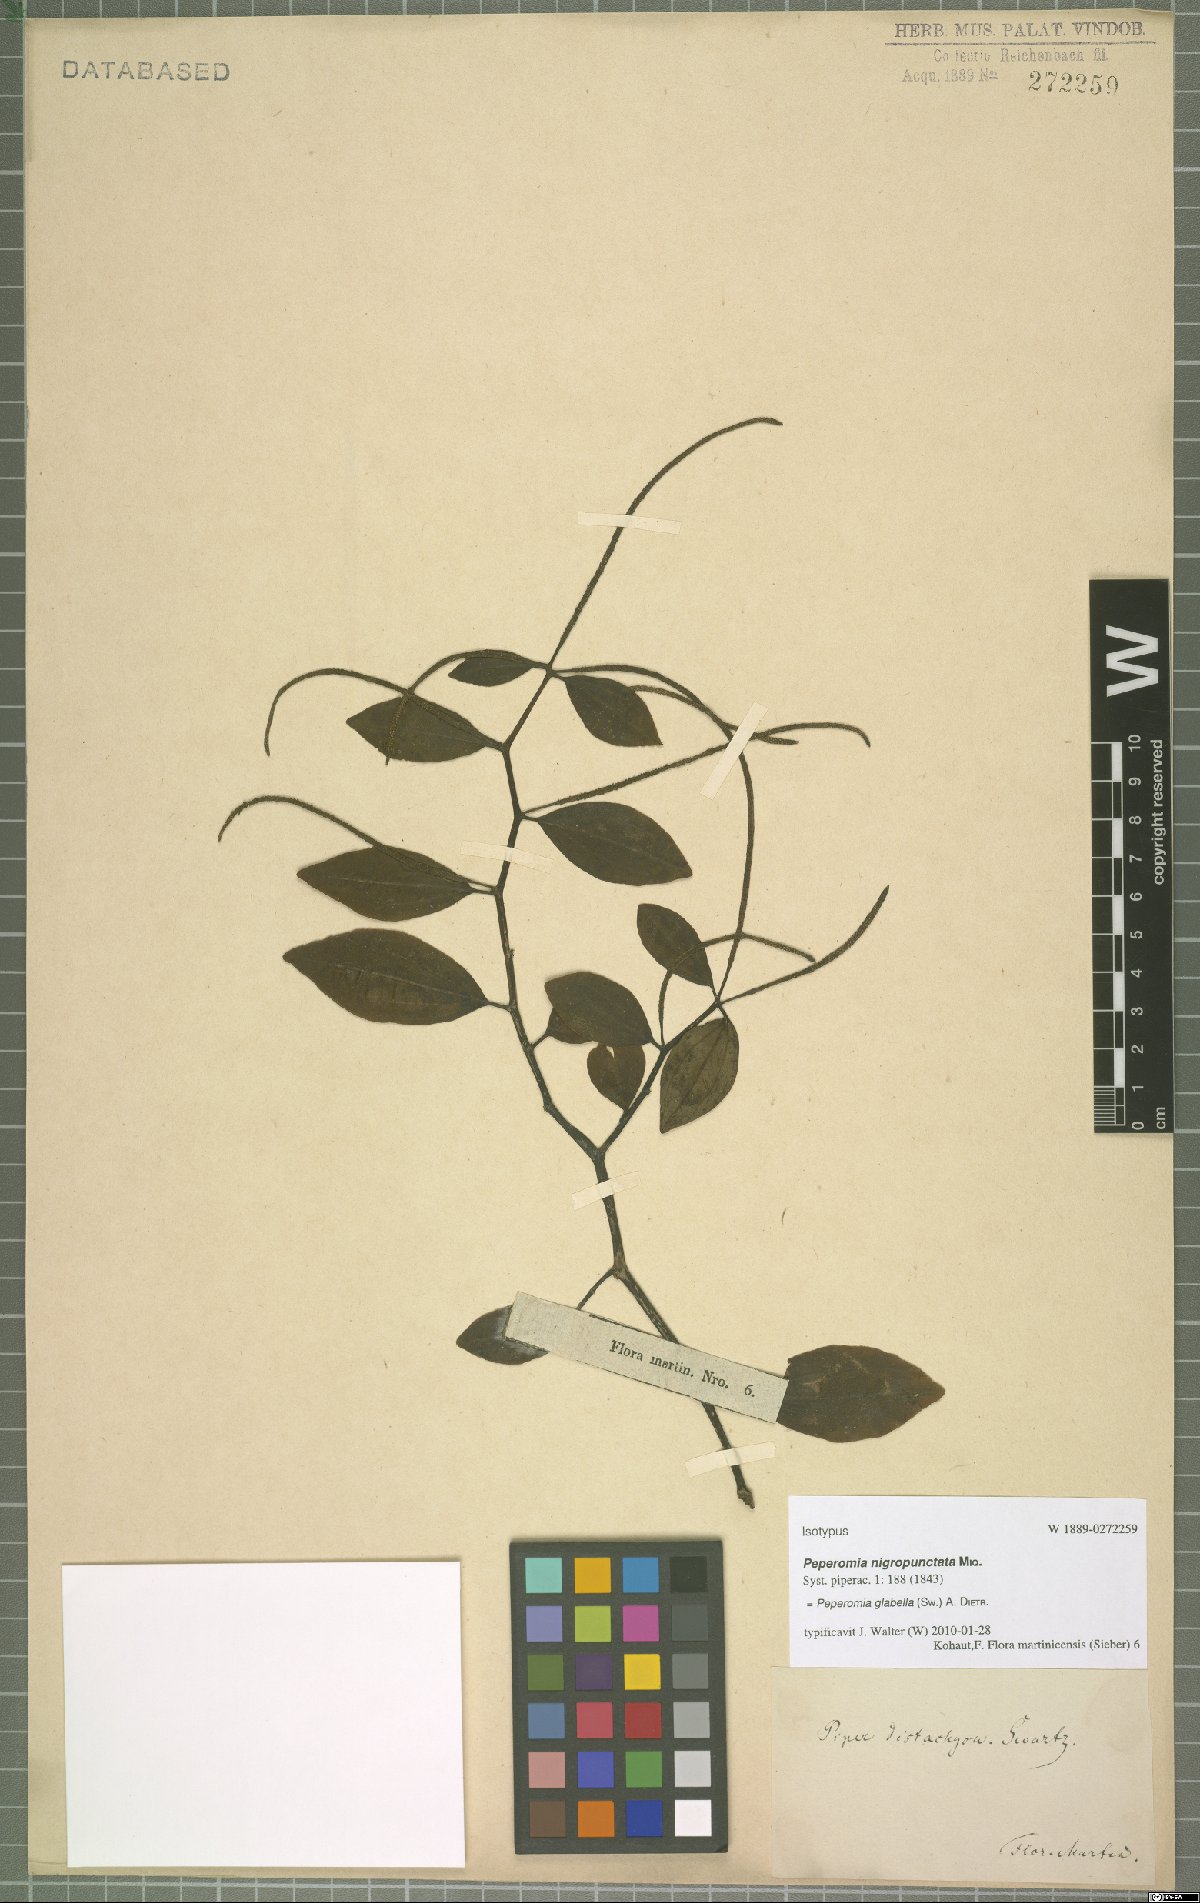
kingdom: Plantae
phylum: Tracheophyta
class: Magnoliopsida
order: Piperales
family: Piperaceae
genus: Peperomia
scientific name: Peperomia glabella
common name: Cypress peperomia
